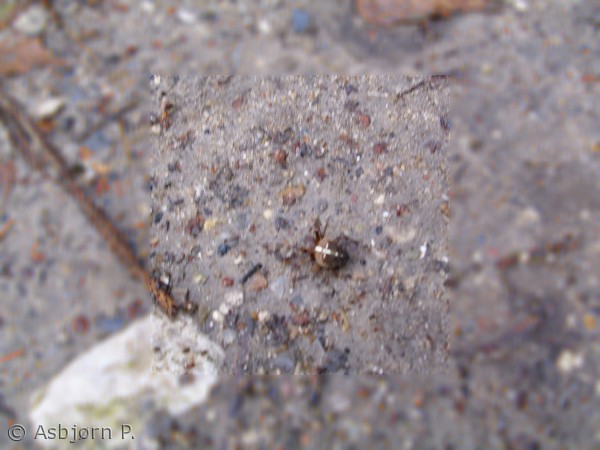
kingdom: Animalia
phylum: Arthropoda
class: Arachnida
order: Araneae
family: Araneidae
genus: Araneus
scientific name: Araneus diadematus
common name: Korsedderkop
